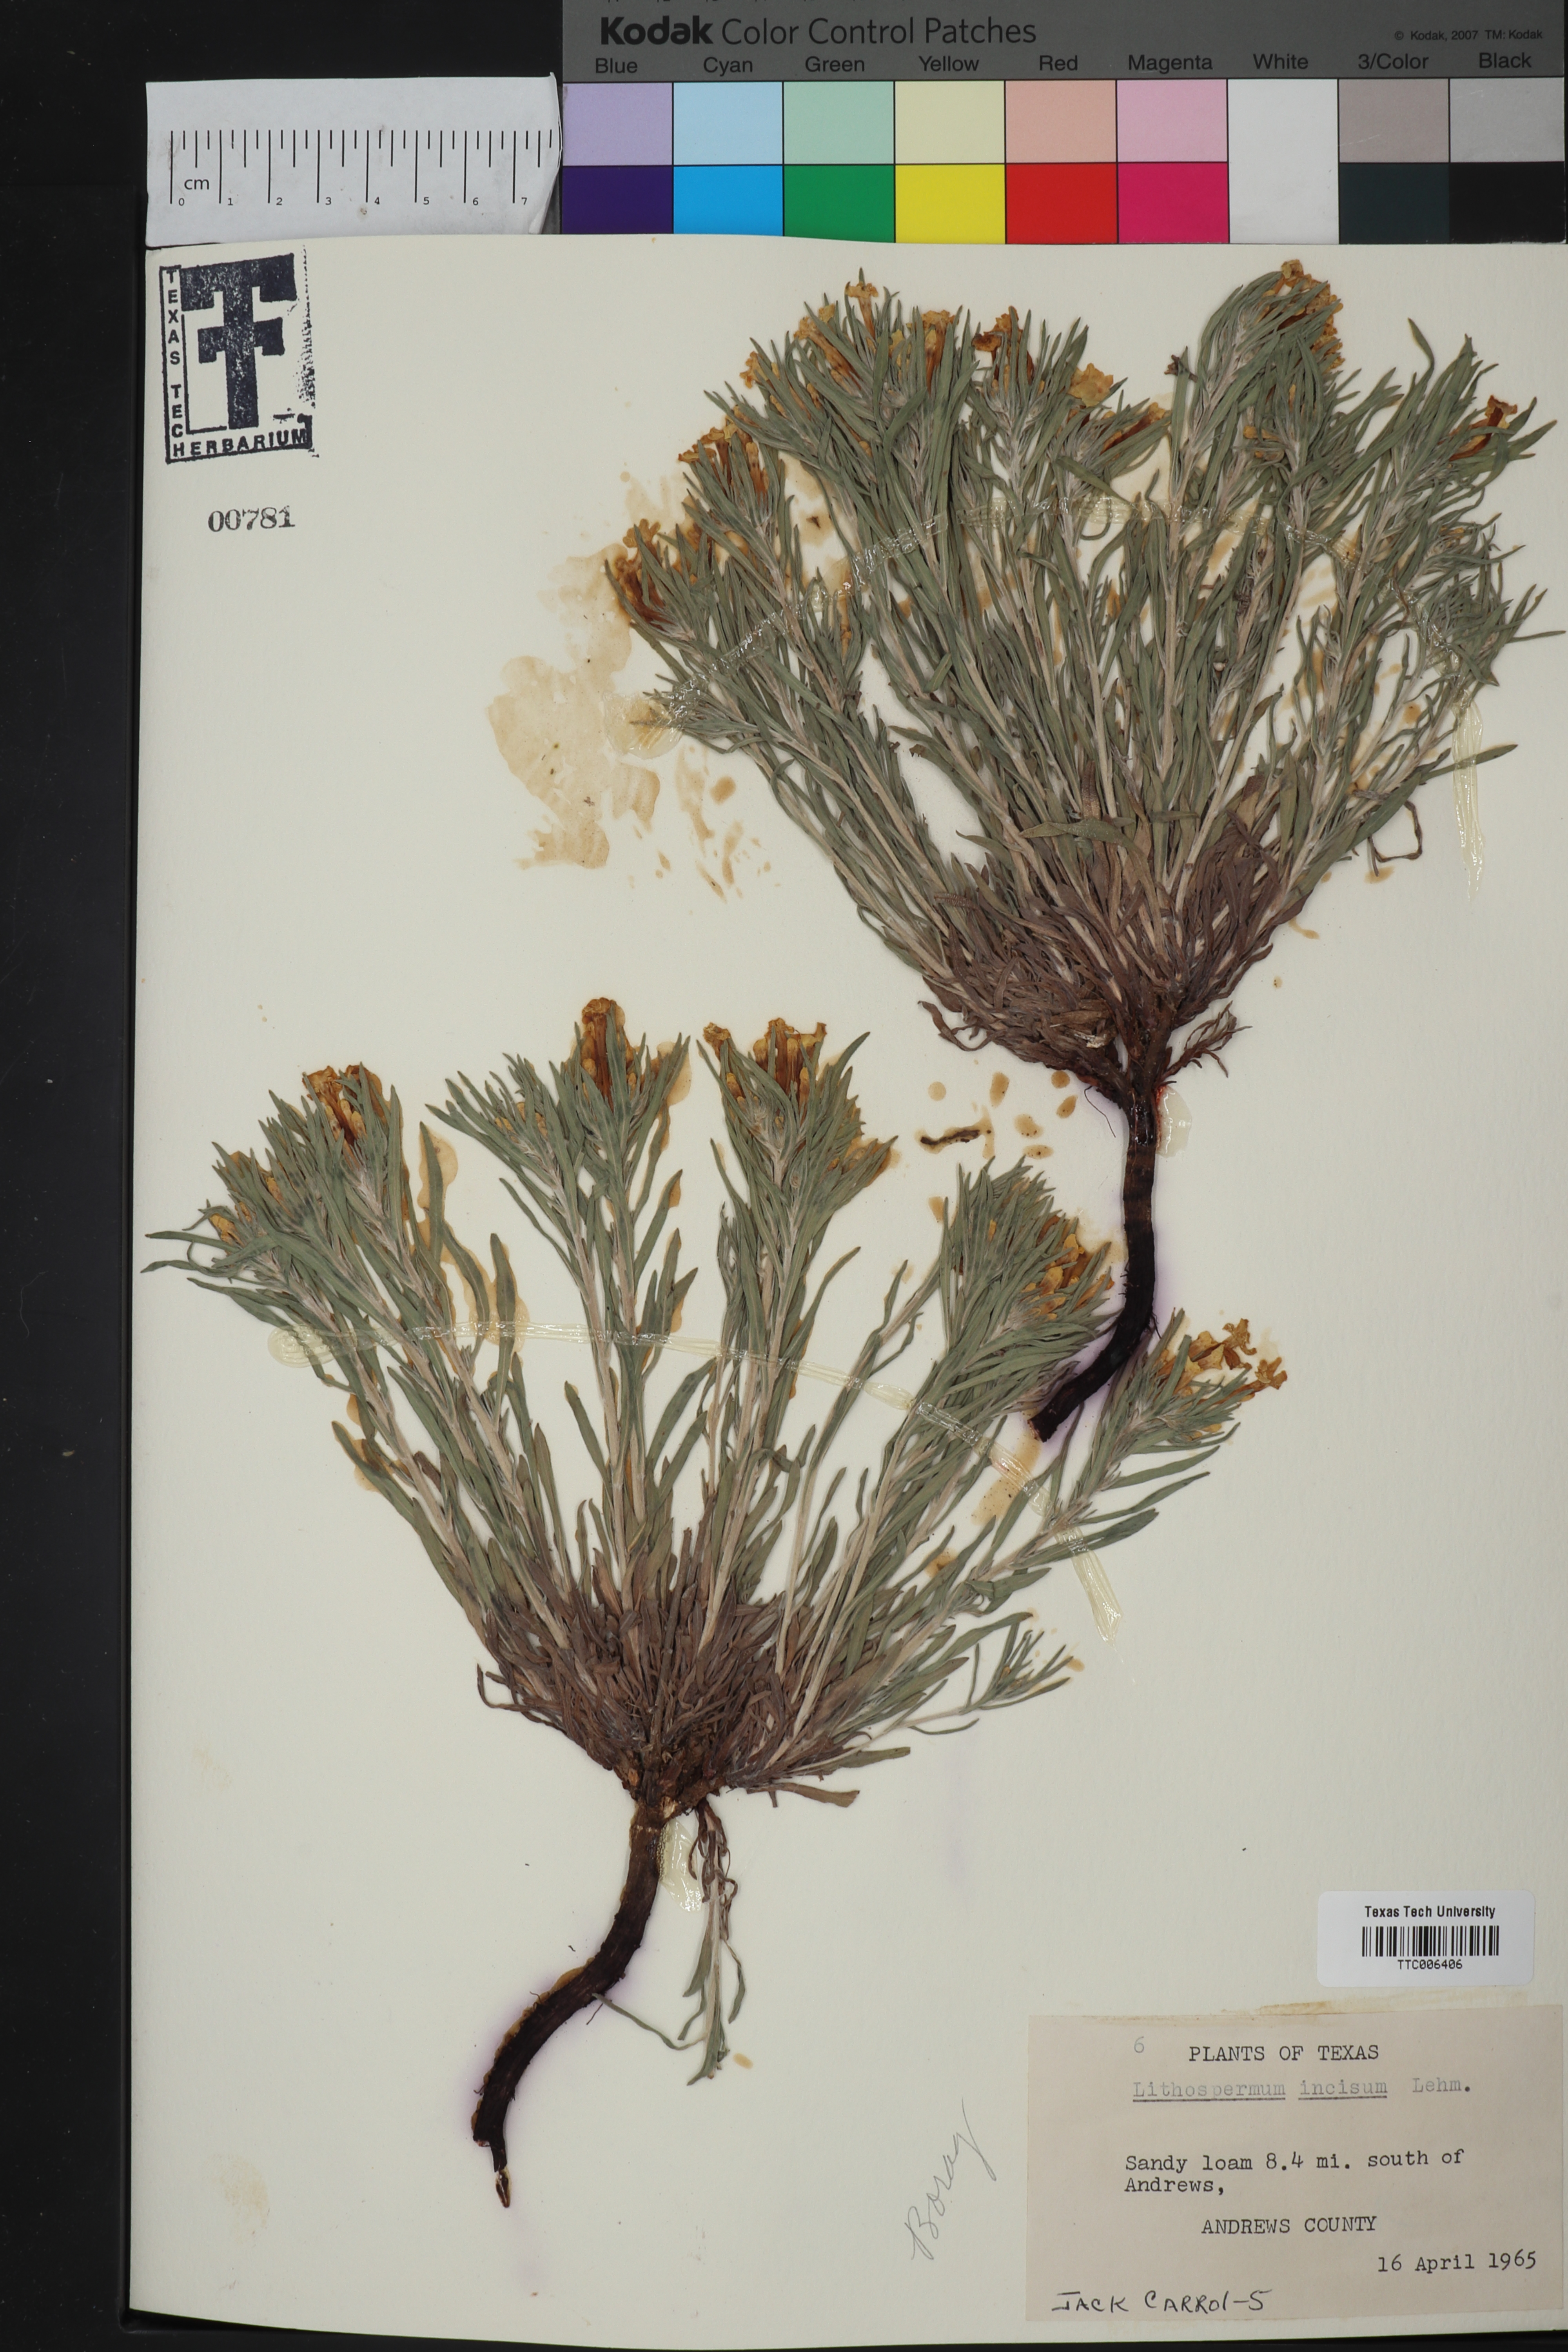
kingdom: Plantae
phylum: Tracheophyta
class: Magnoliopsida
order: Boraginales
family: Boraginaceae
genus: Lithospermum
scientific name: Lithospermum incisum
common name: Fringed gromwell
